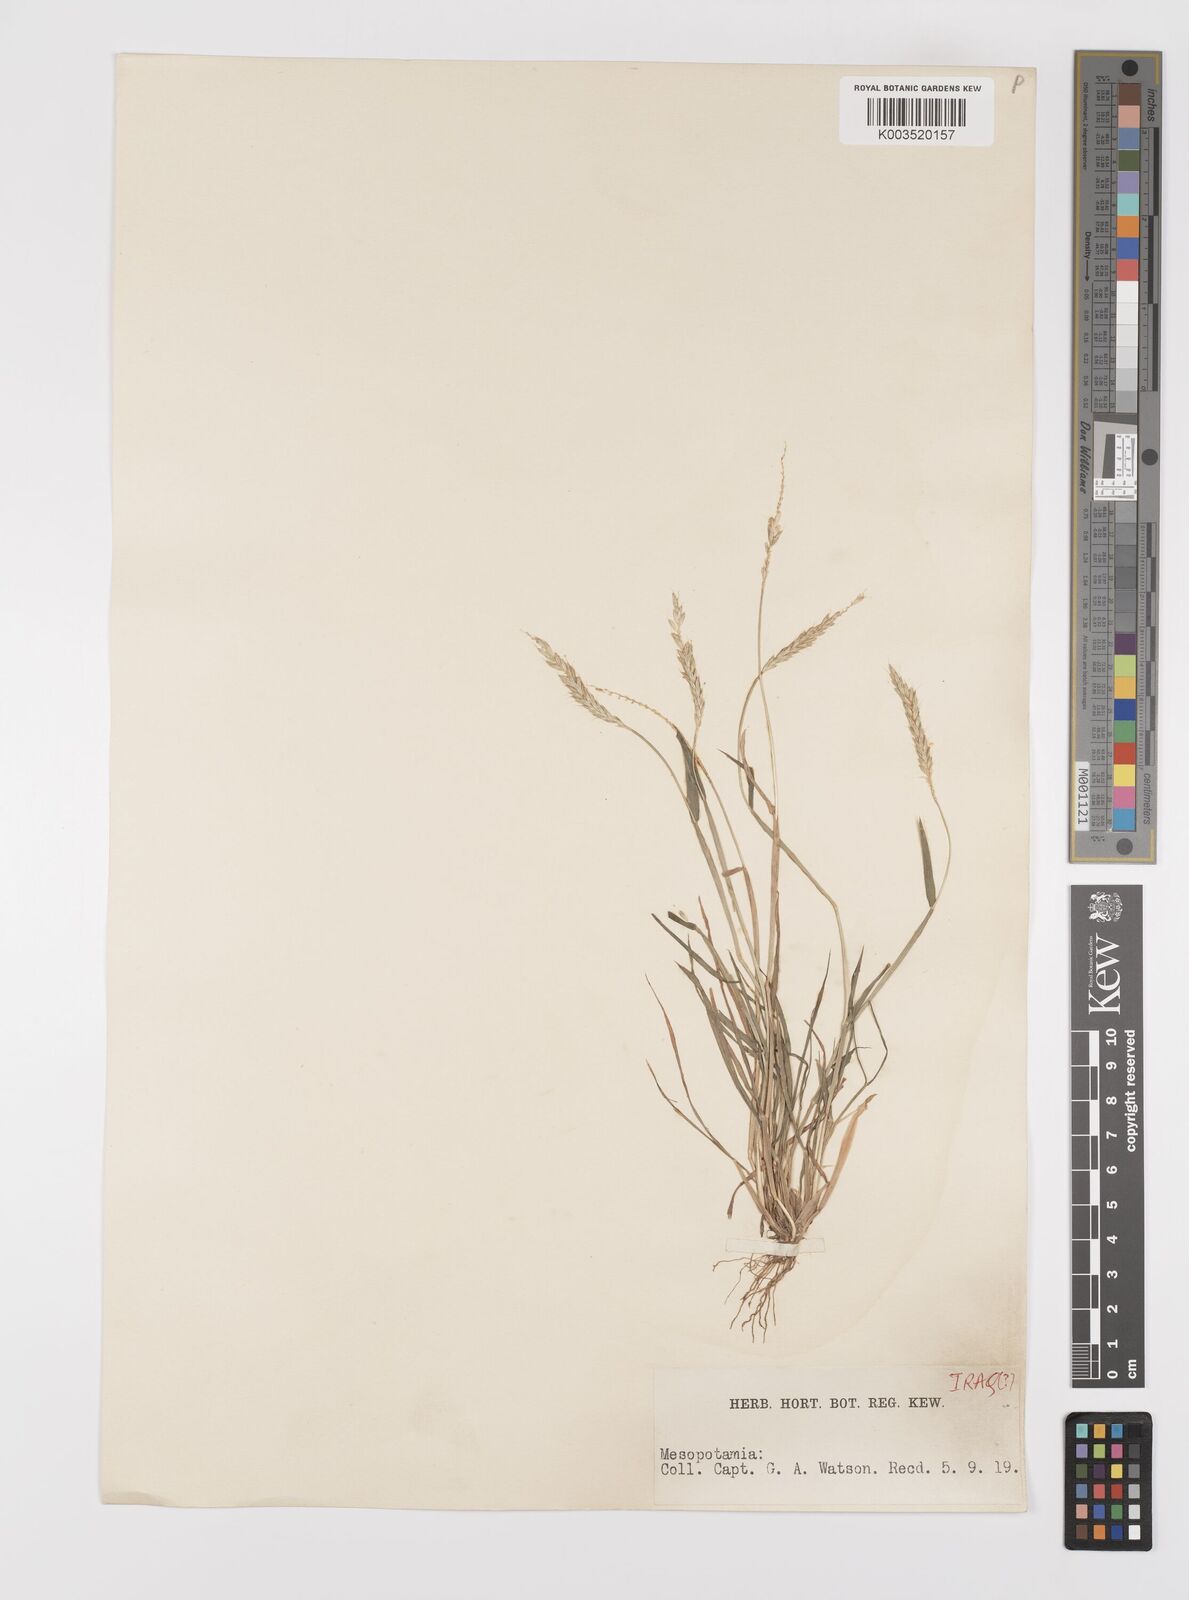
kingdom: Plantae
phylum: Tracheophyta
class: Liliopsida
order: Poales
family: Poaceae
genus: Alopecurus
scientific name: Alopecurus myosuroides
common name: Black-grass
